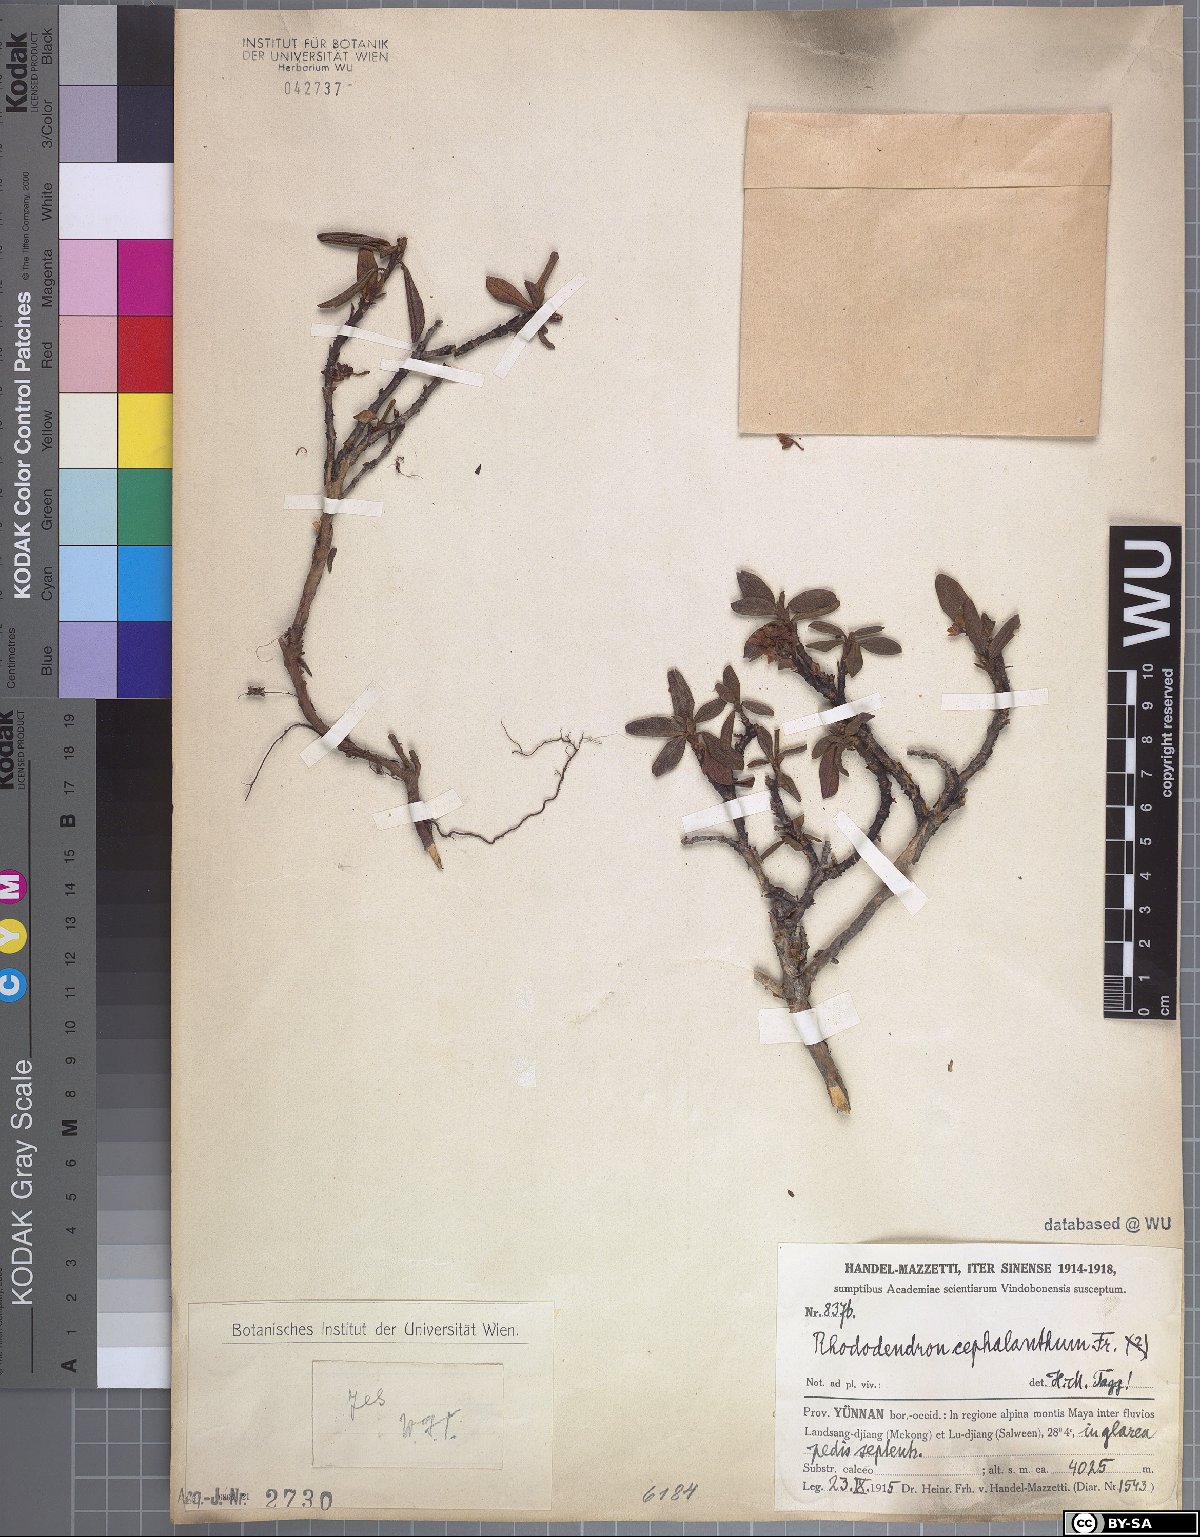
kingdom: Plantae
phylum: Tracheophyta
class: Magnoliopsida
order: Ericales
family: Ericaceae
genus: Rhododendron
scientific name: Rhododendron cephalanthum
